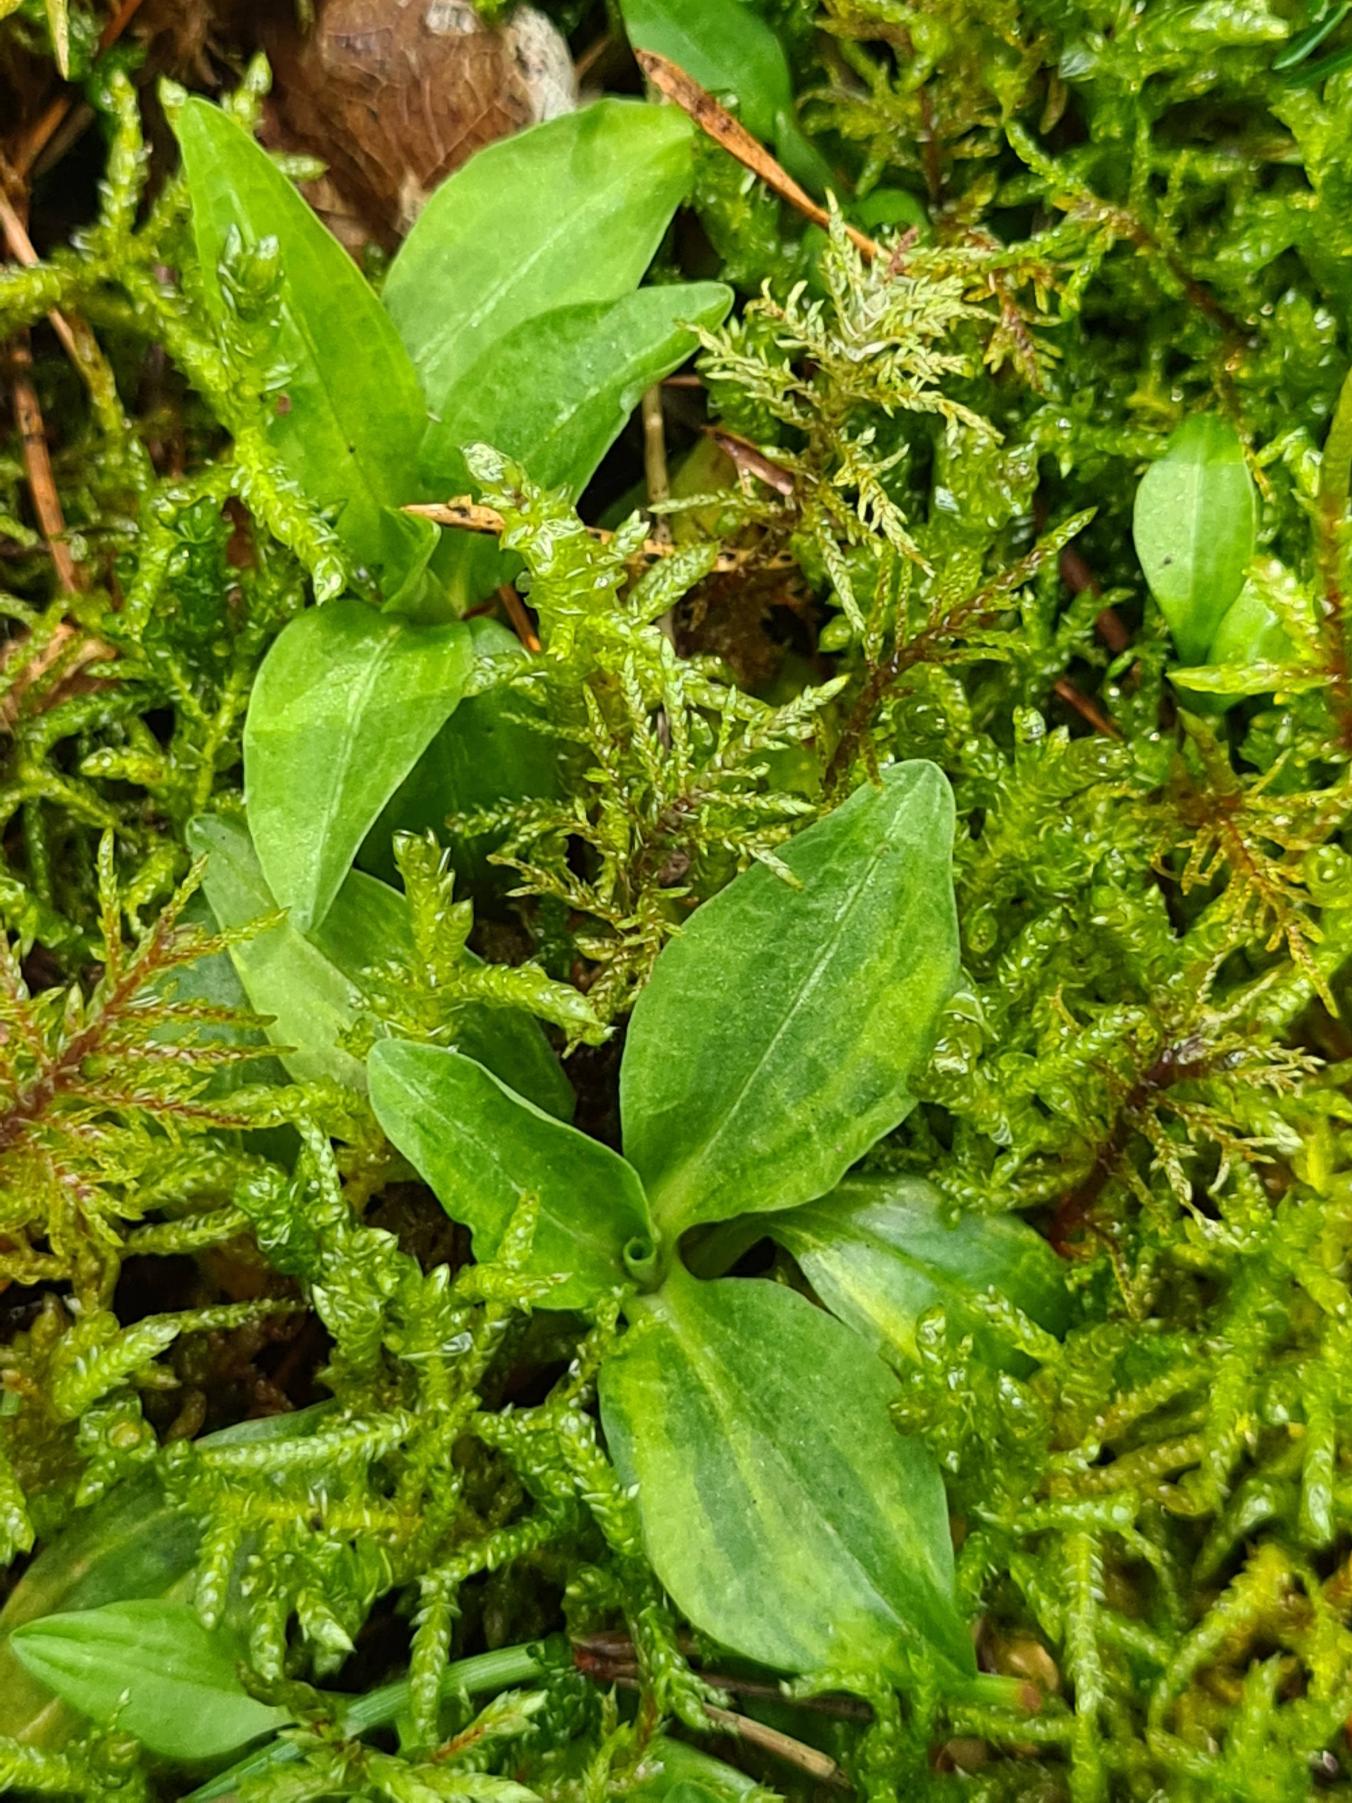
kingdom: Plantae
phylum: Tracheophyta
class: Liliopsida
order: Asparagales
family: Orchidaceae
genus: Goodyera
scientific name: Goodyera repens
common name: Knærod
